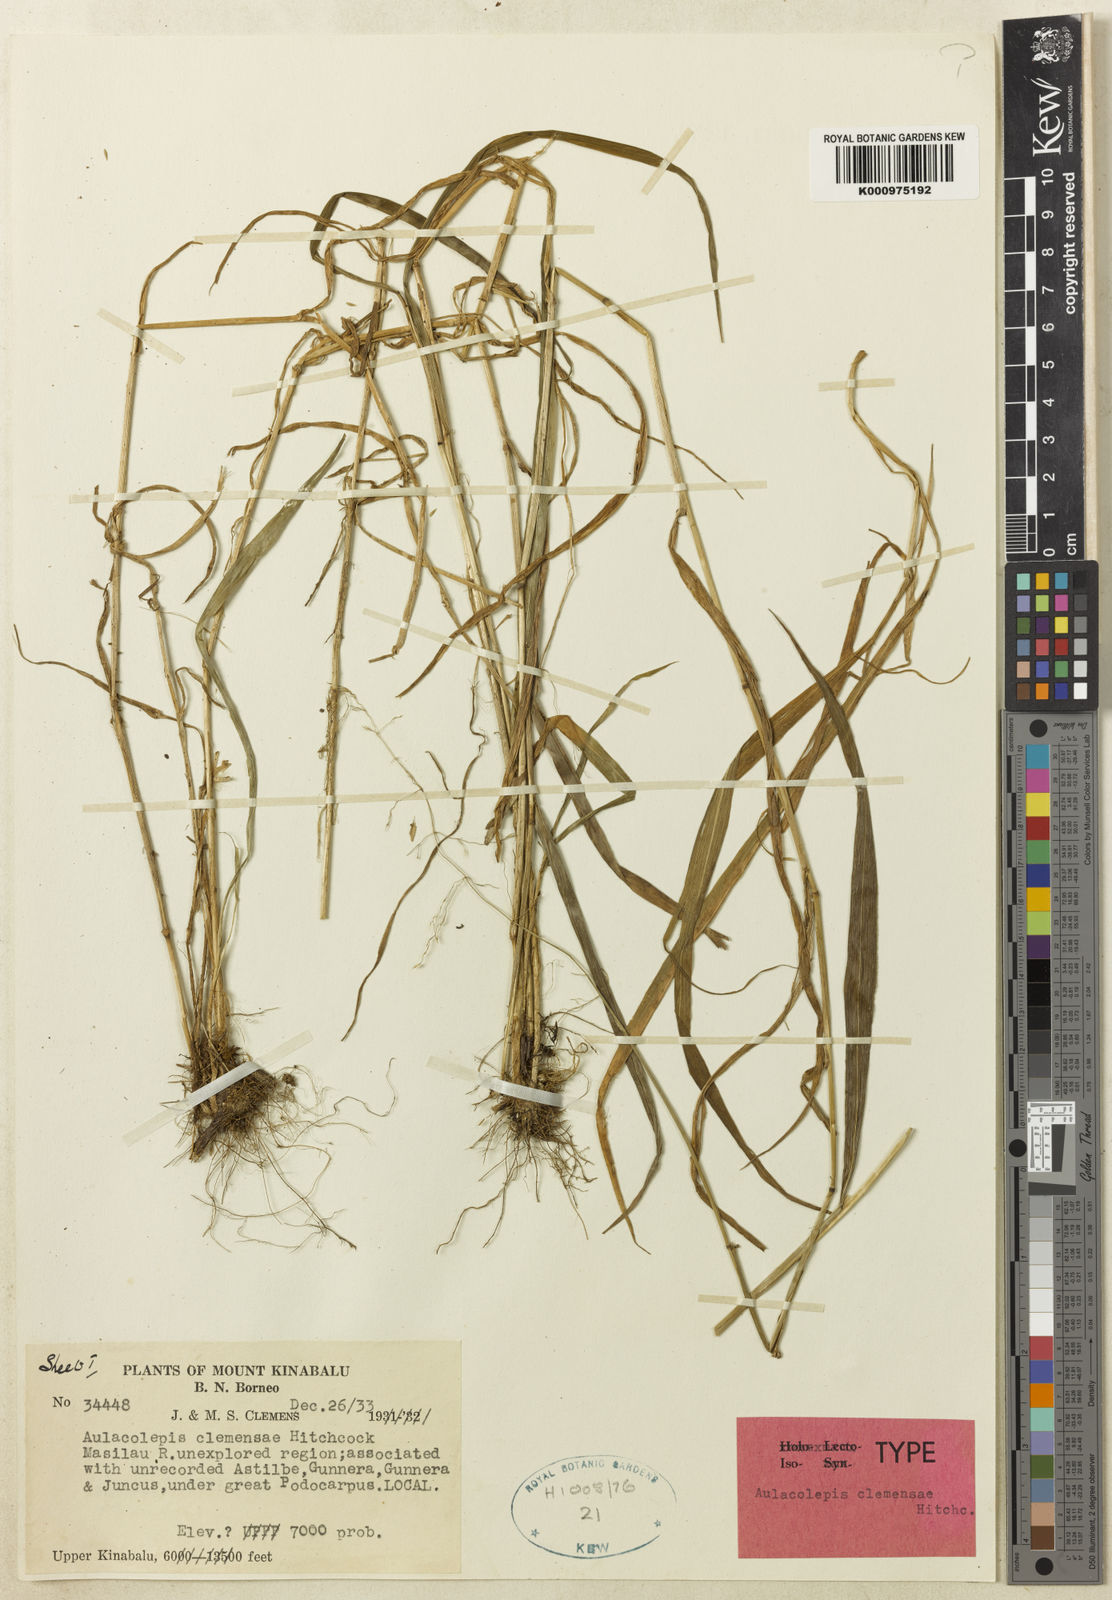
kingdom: Plantae
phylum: Tracheophyta
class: Liliopsida
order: Poales
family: Poaceae
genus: Aniselytron
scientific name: Aniselytron
